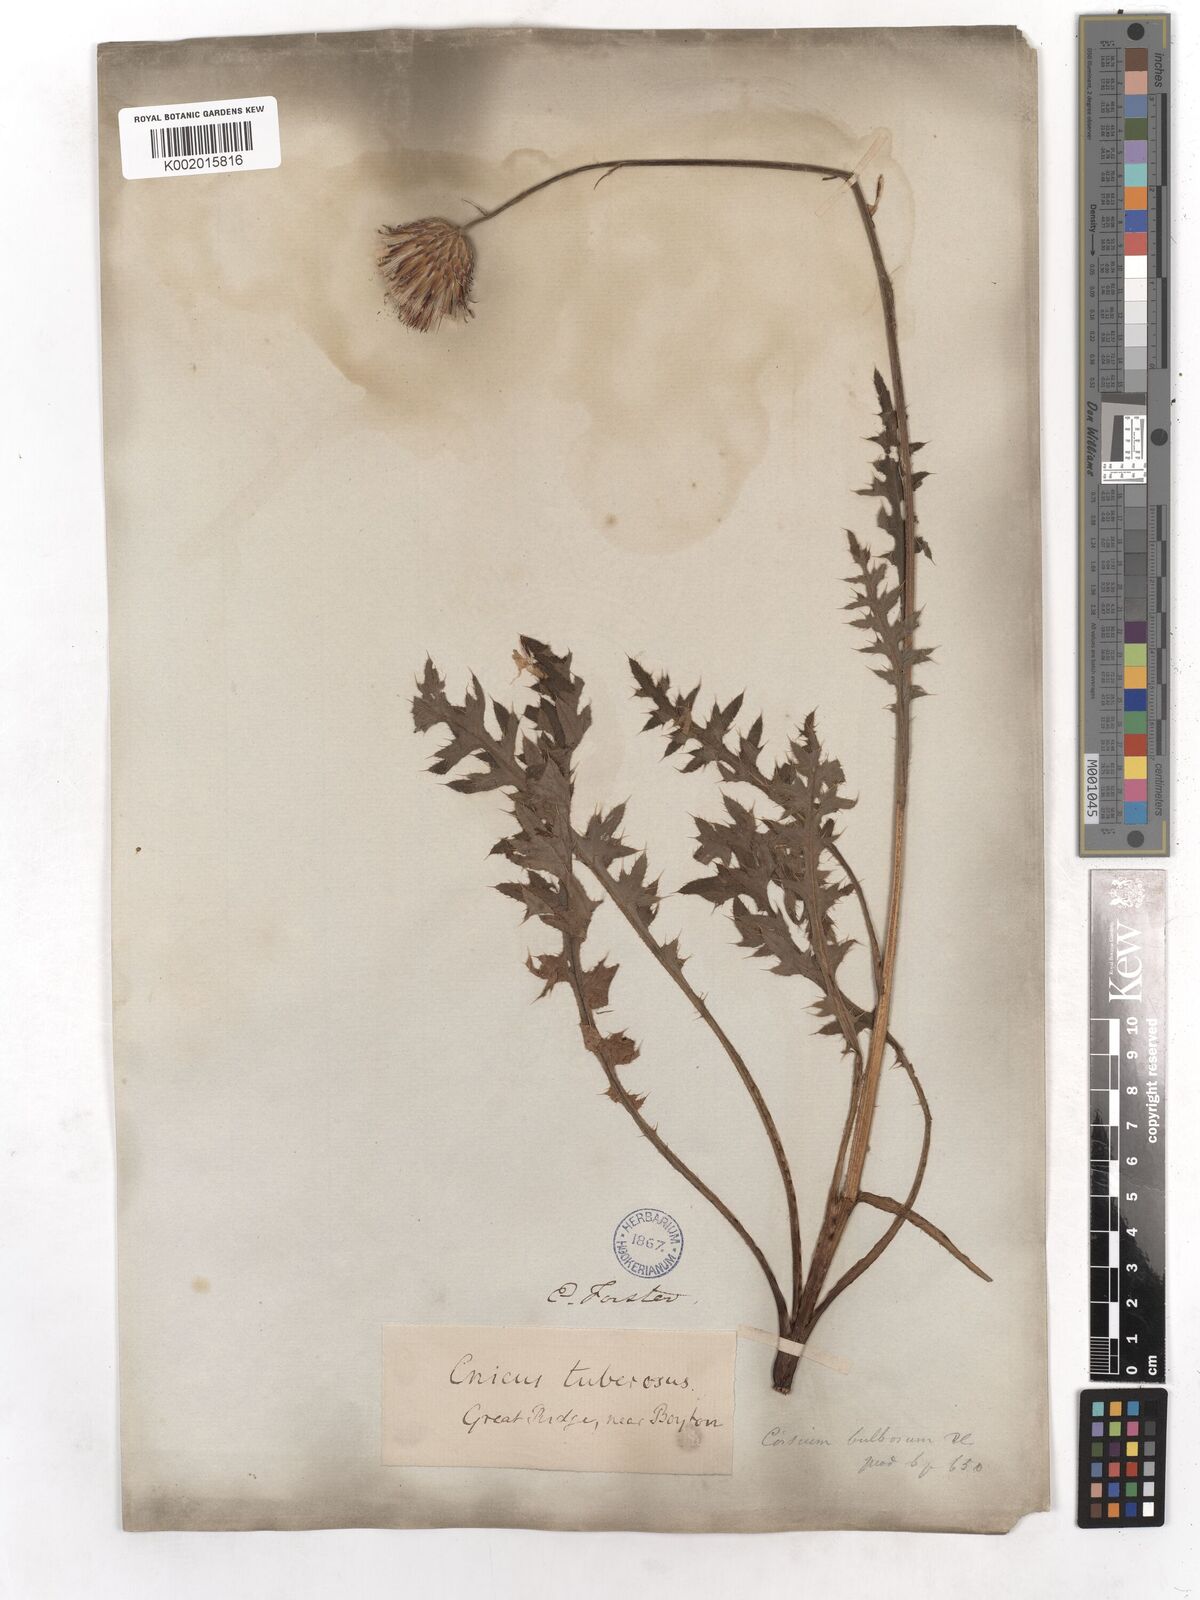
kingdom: Plantae
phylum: Tracheophyta
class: Magnoliopsida
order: Asterales
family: Asteraceae
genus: Cirsium
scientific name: Cirsium tuberosum
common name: Tuberous thistle
